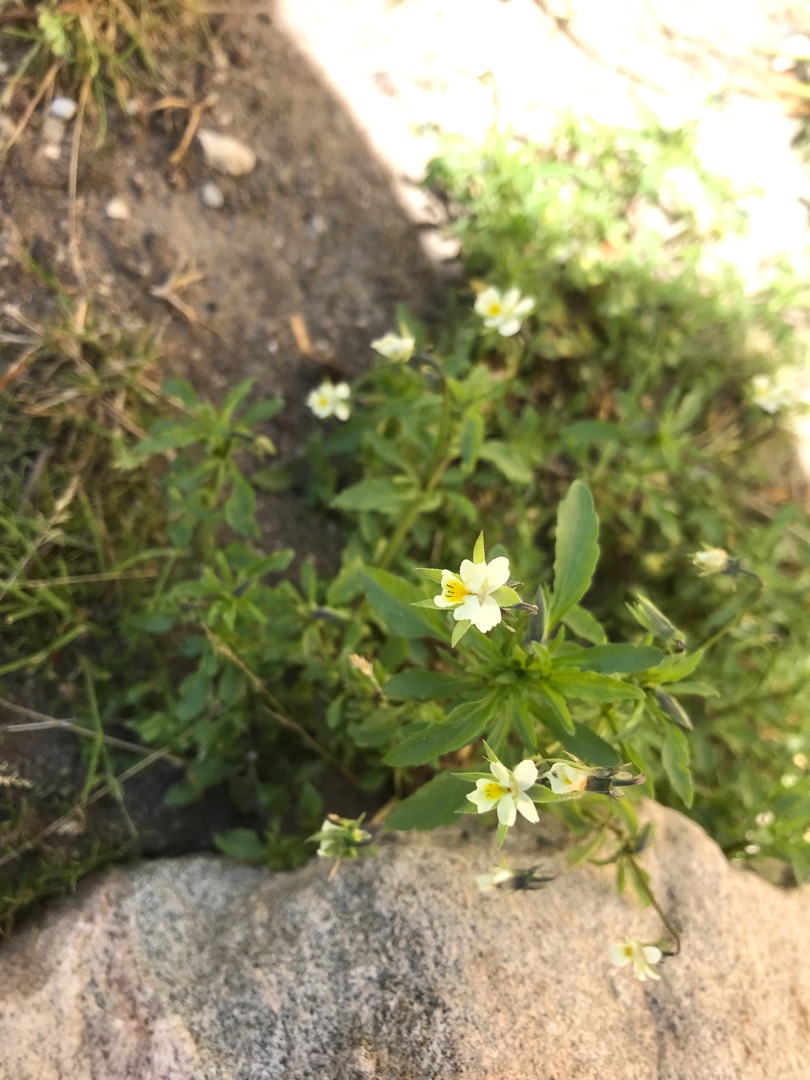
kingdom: Plantae
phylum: Tracheophyta
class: Magnoliopsida
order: Malpighiales
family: Violaceae
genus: Viola
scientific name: Viola arvensis
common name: Ager-stedmoderblomst
